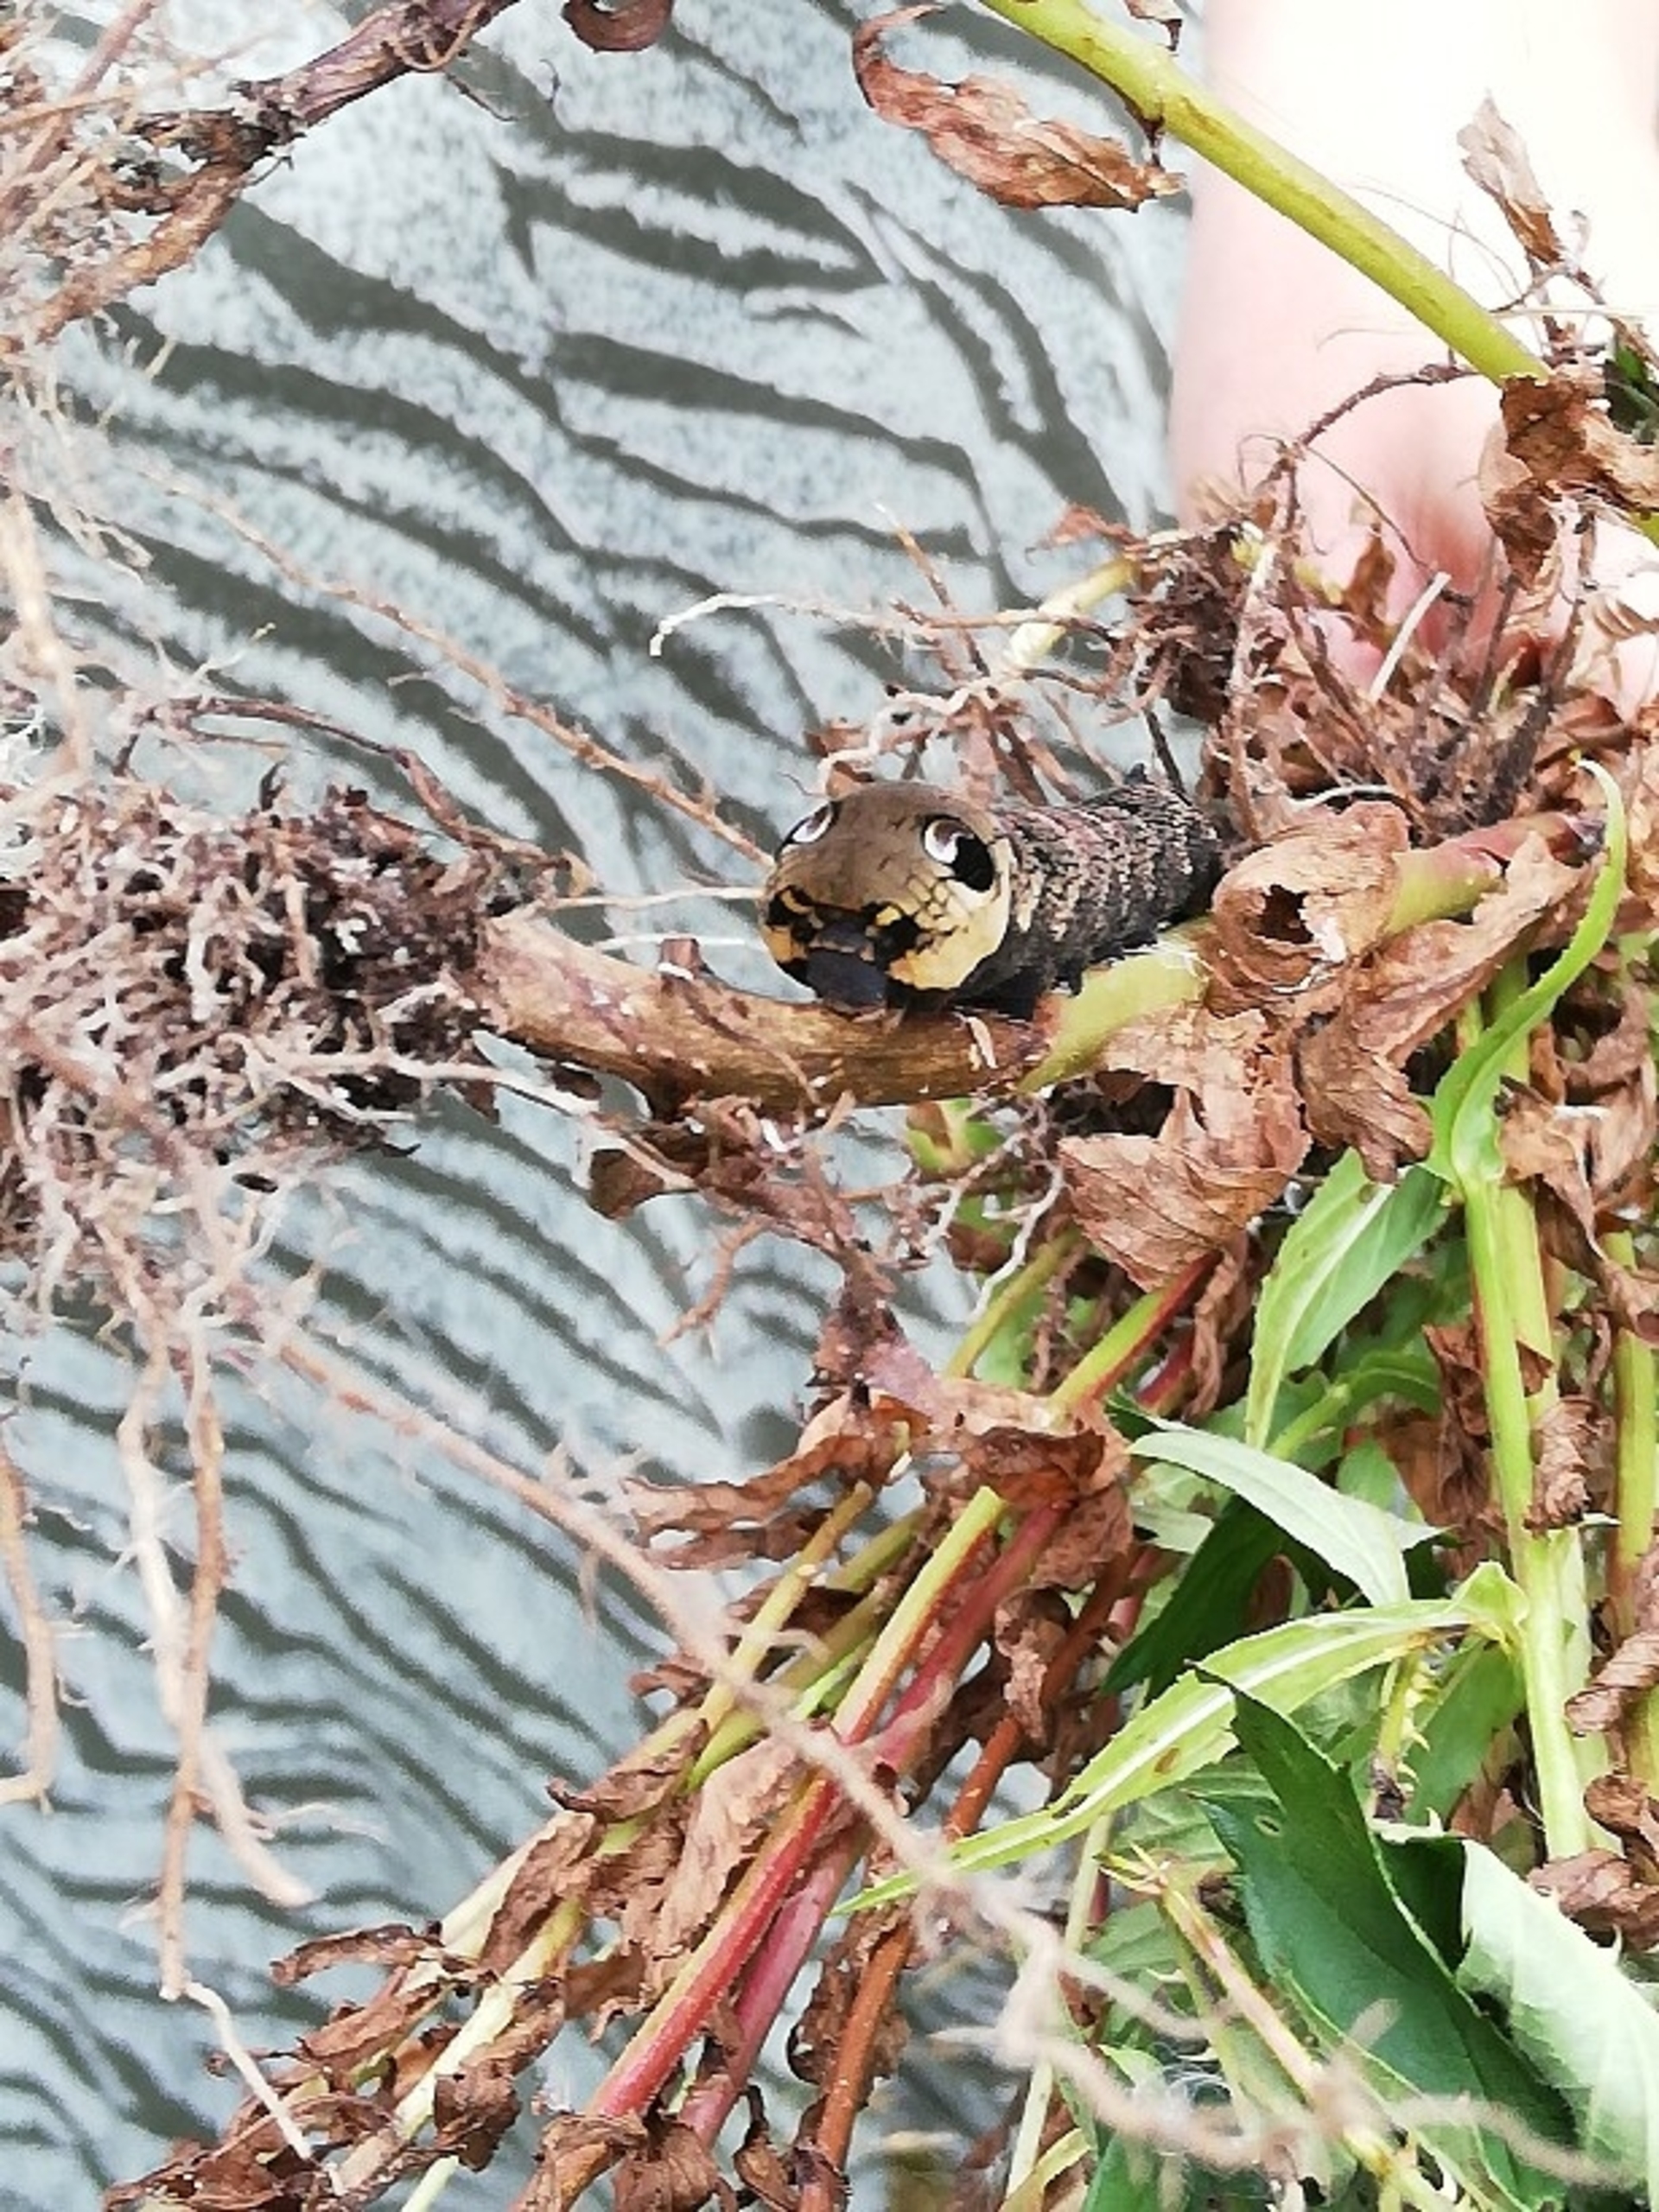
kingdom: Animalia
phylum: Arthropoda
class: Insecta
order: Lepidoptera
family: Sphingidae
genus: Deilephila
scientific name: Deilephila elpenor
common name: Dueurtsværmer
